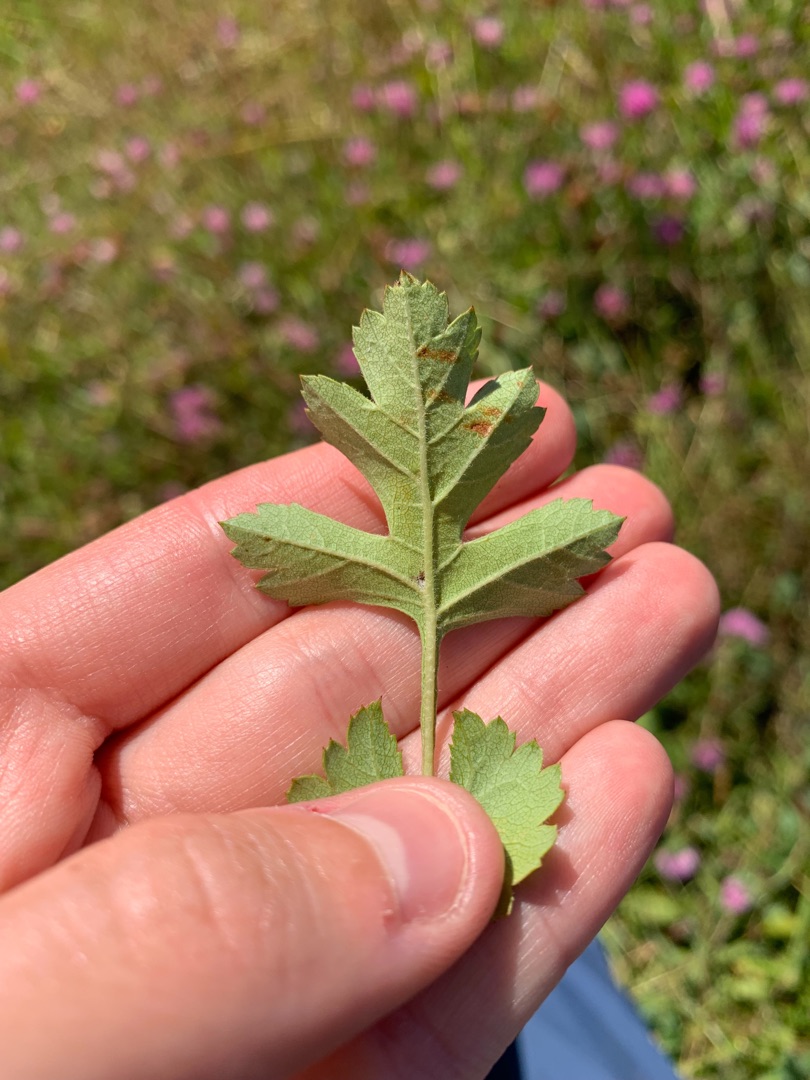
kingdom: Plantae
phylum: Tracheophyta
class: Magnoliopsida
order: Rosales
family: Rosaceae
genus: Crataegus
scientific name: Crataegus monogyna
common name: Engriflet hvidtjørn
